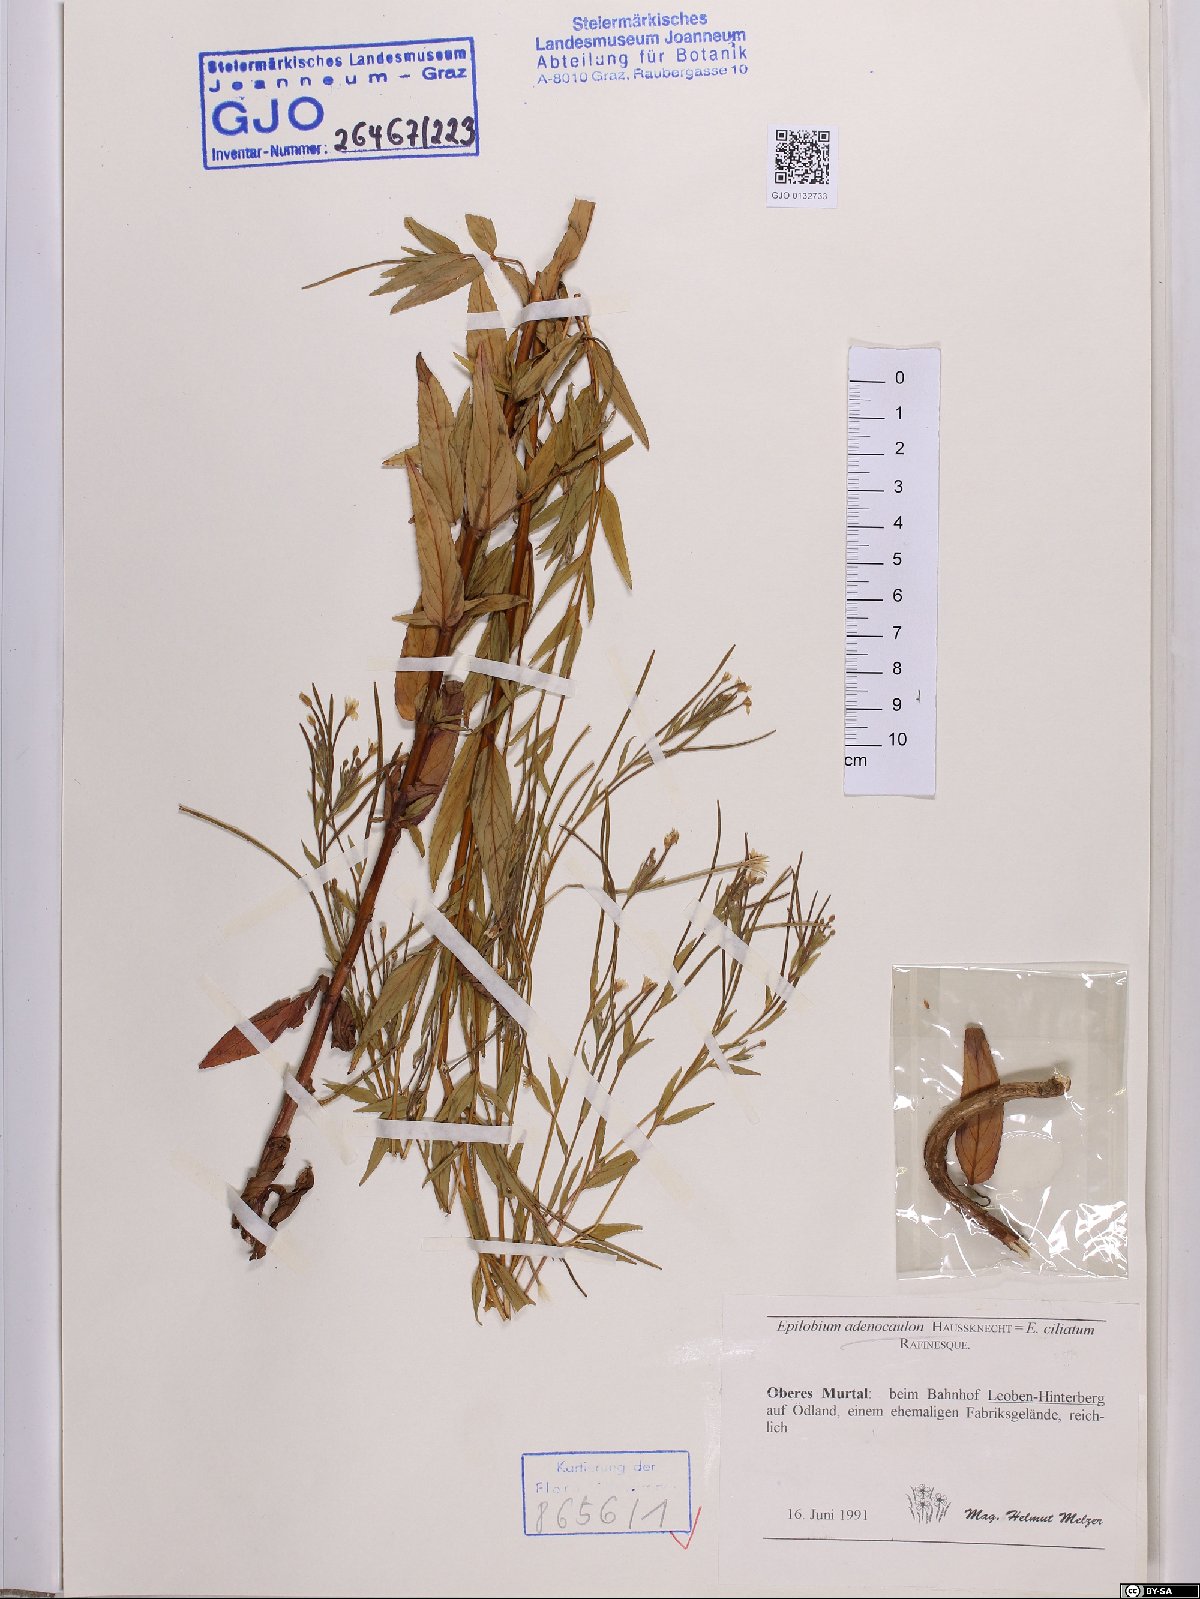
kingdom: Plantae
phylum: Tracheophyta
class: Magnoliopsida
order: Myrtales
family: Onagraceae
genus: Epilobium
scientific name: Epilobium ciliatum
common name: American willowherb
